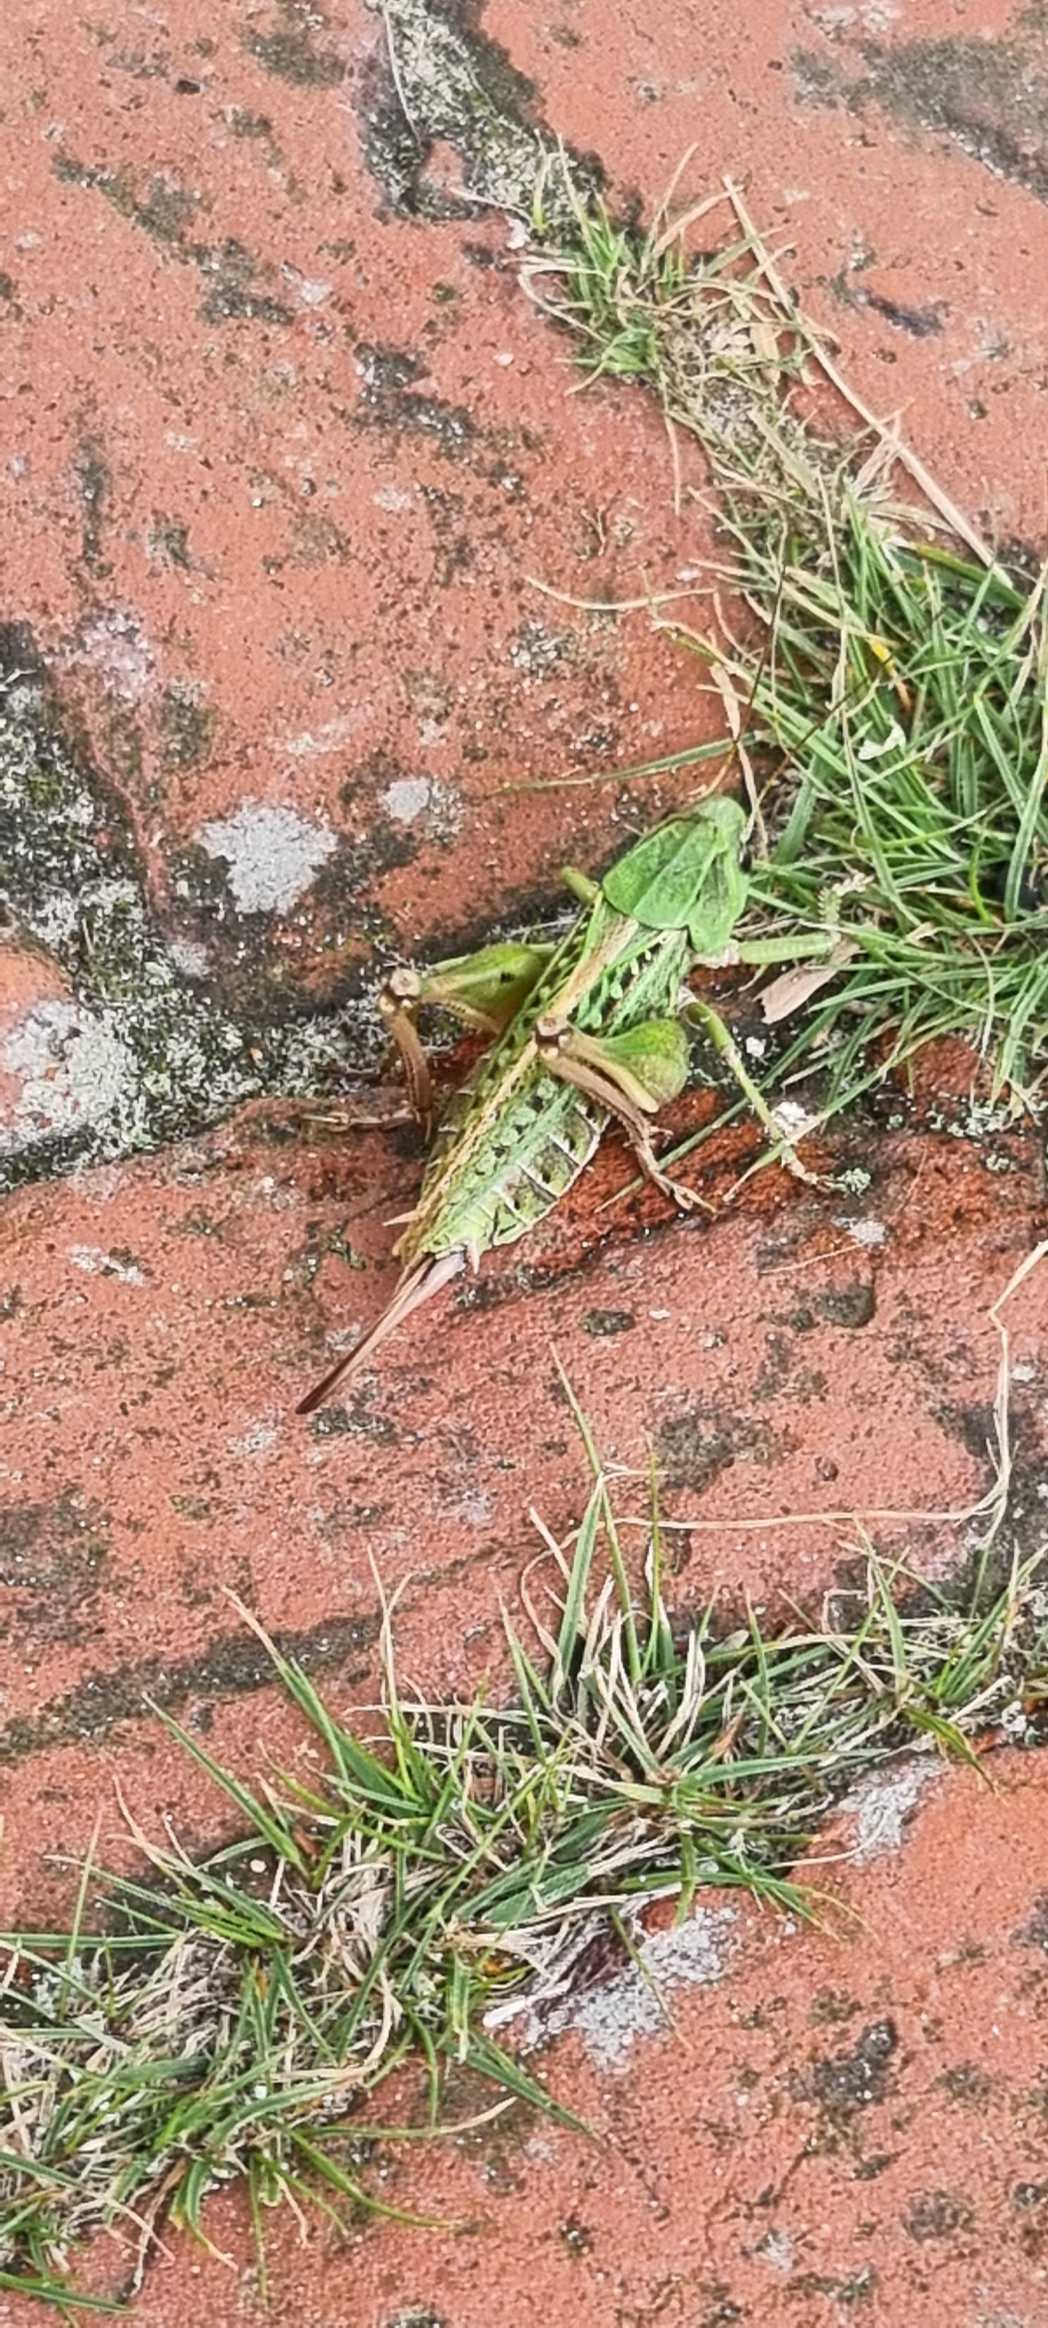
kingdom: Animalia
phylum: Arthropoda
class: Insecta
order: Orthoptera
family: Tettigoniidae
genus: Decticus
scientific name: Decticus verrucivorus
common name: Vortebider
